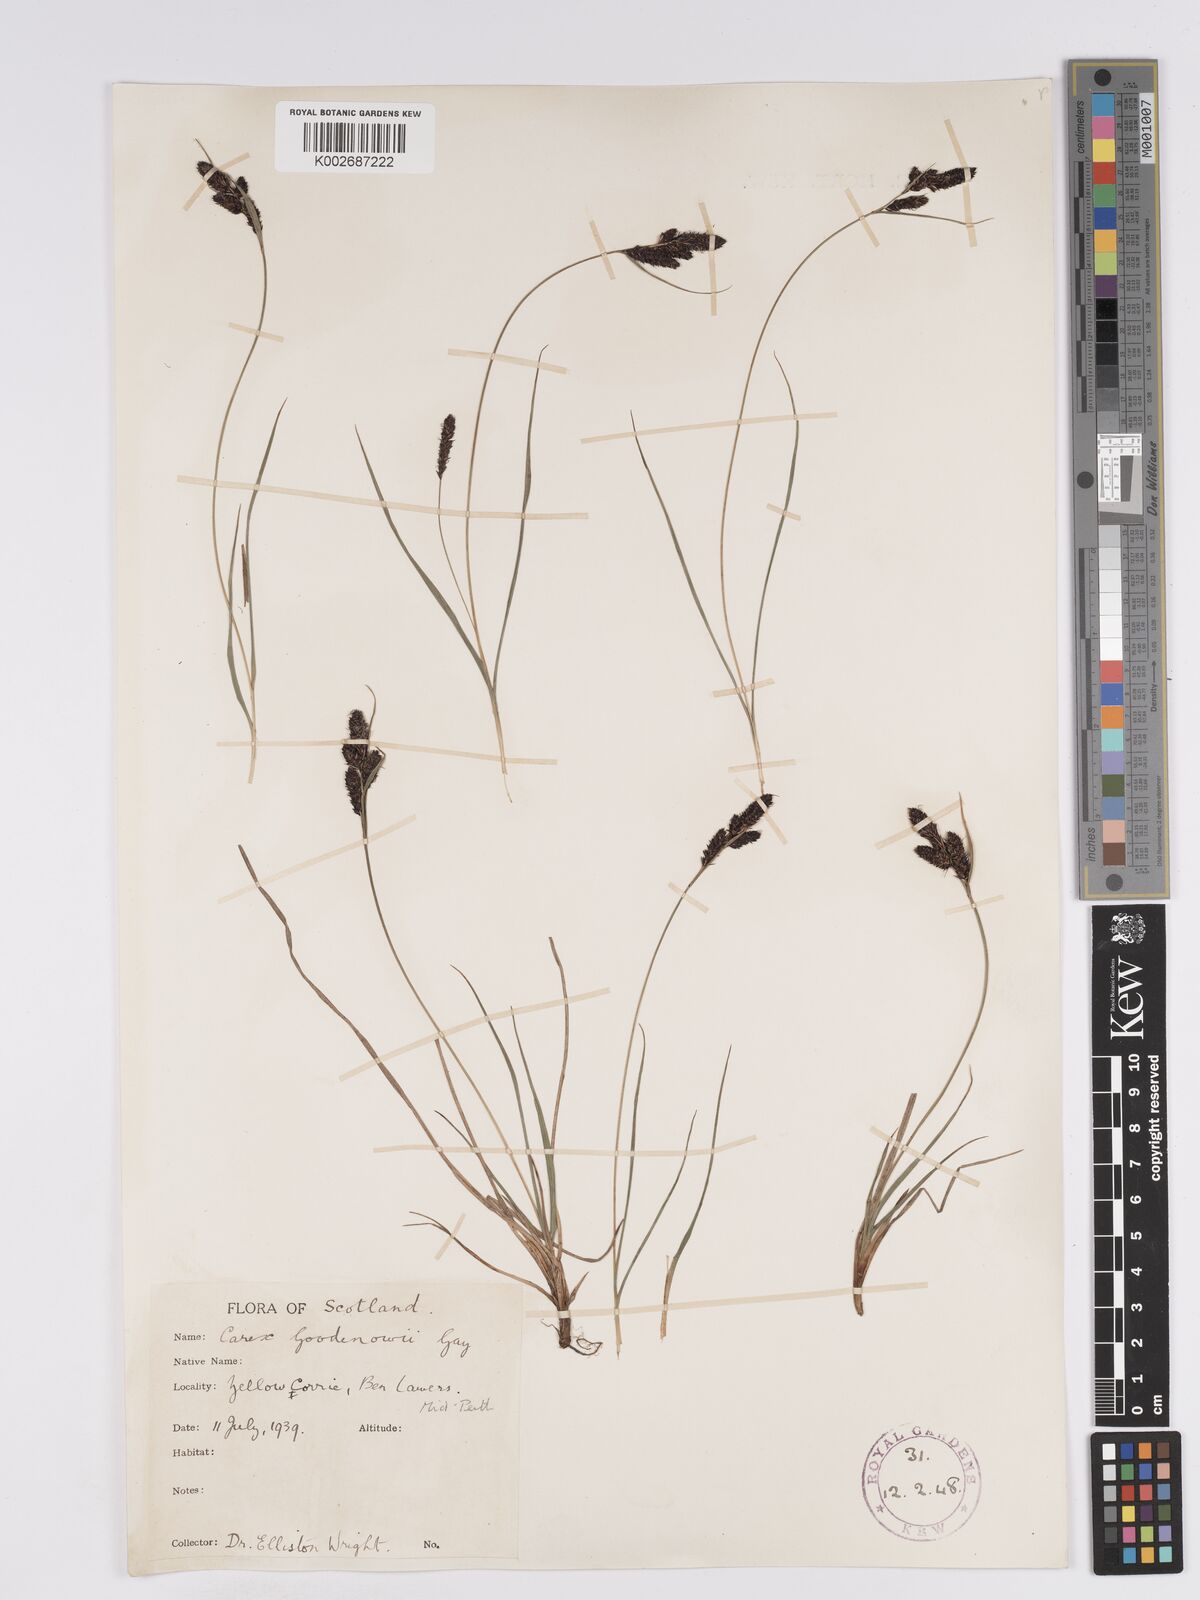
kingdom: Plantae
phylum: Tracheophyta
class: Liliopsida
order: Poales
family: Cyperaceae
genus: Carex
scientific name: Carex nigra
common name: Common sedge
